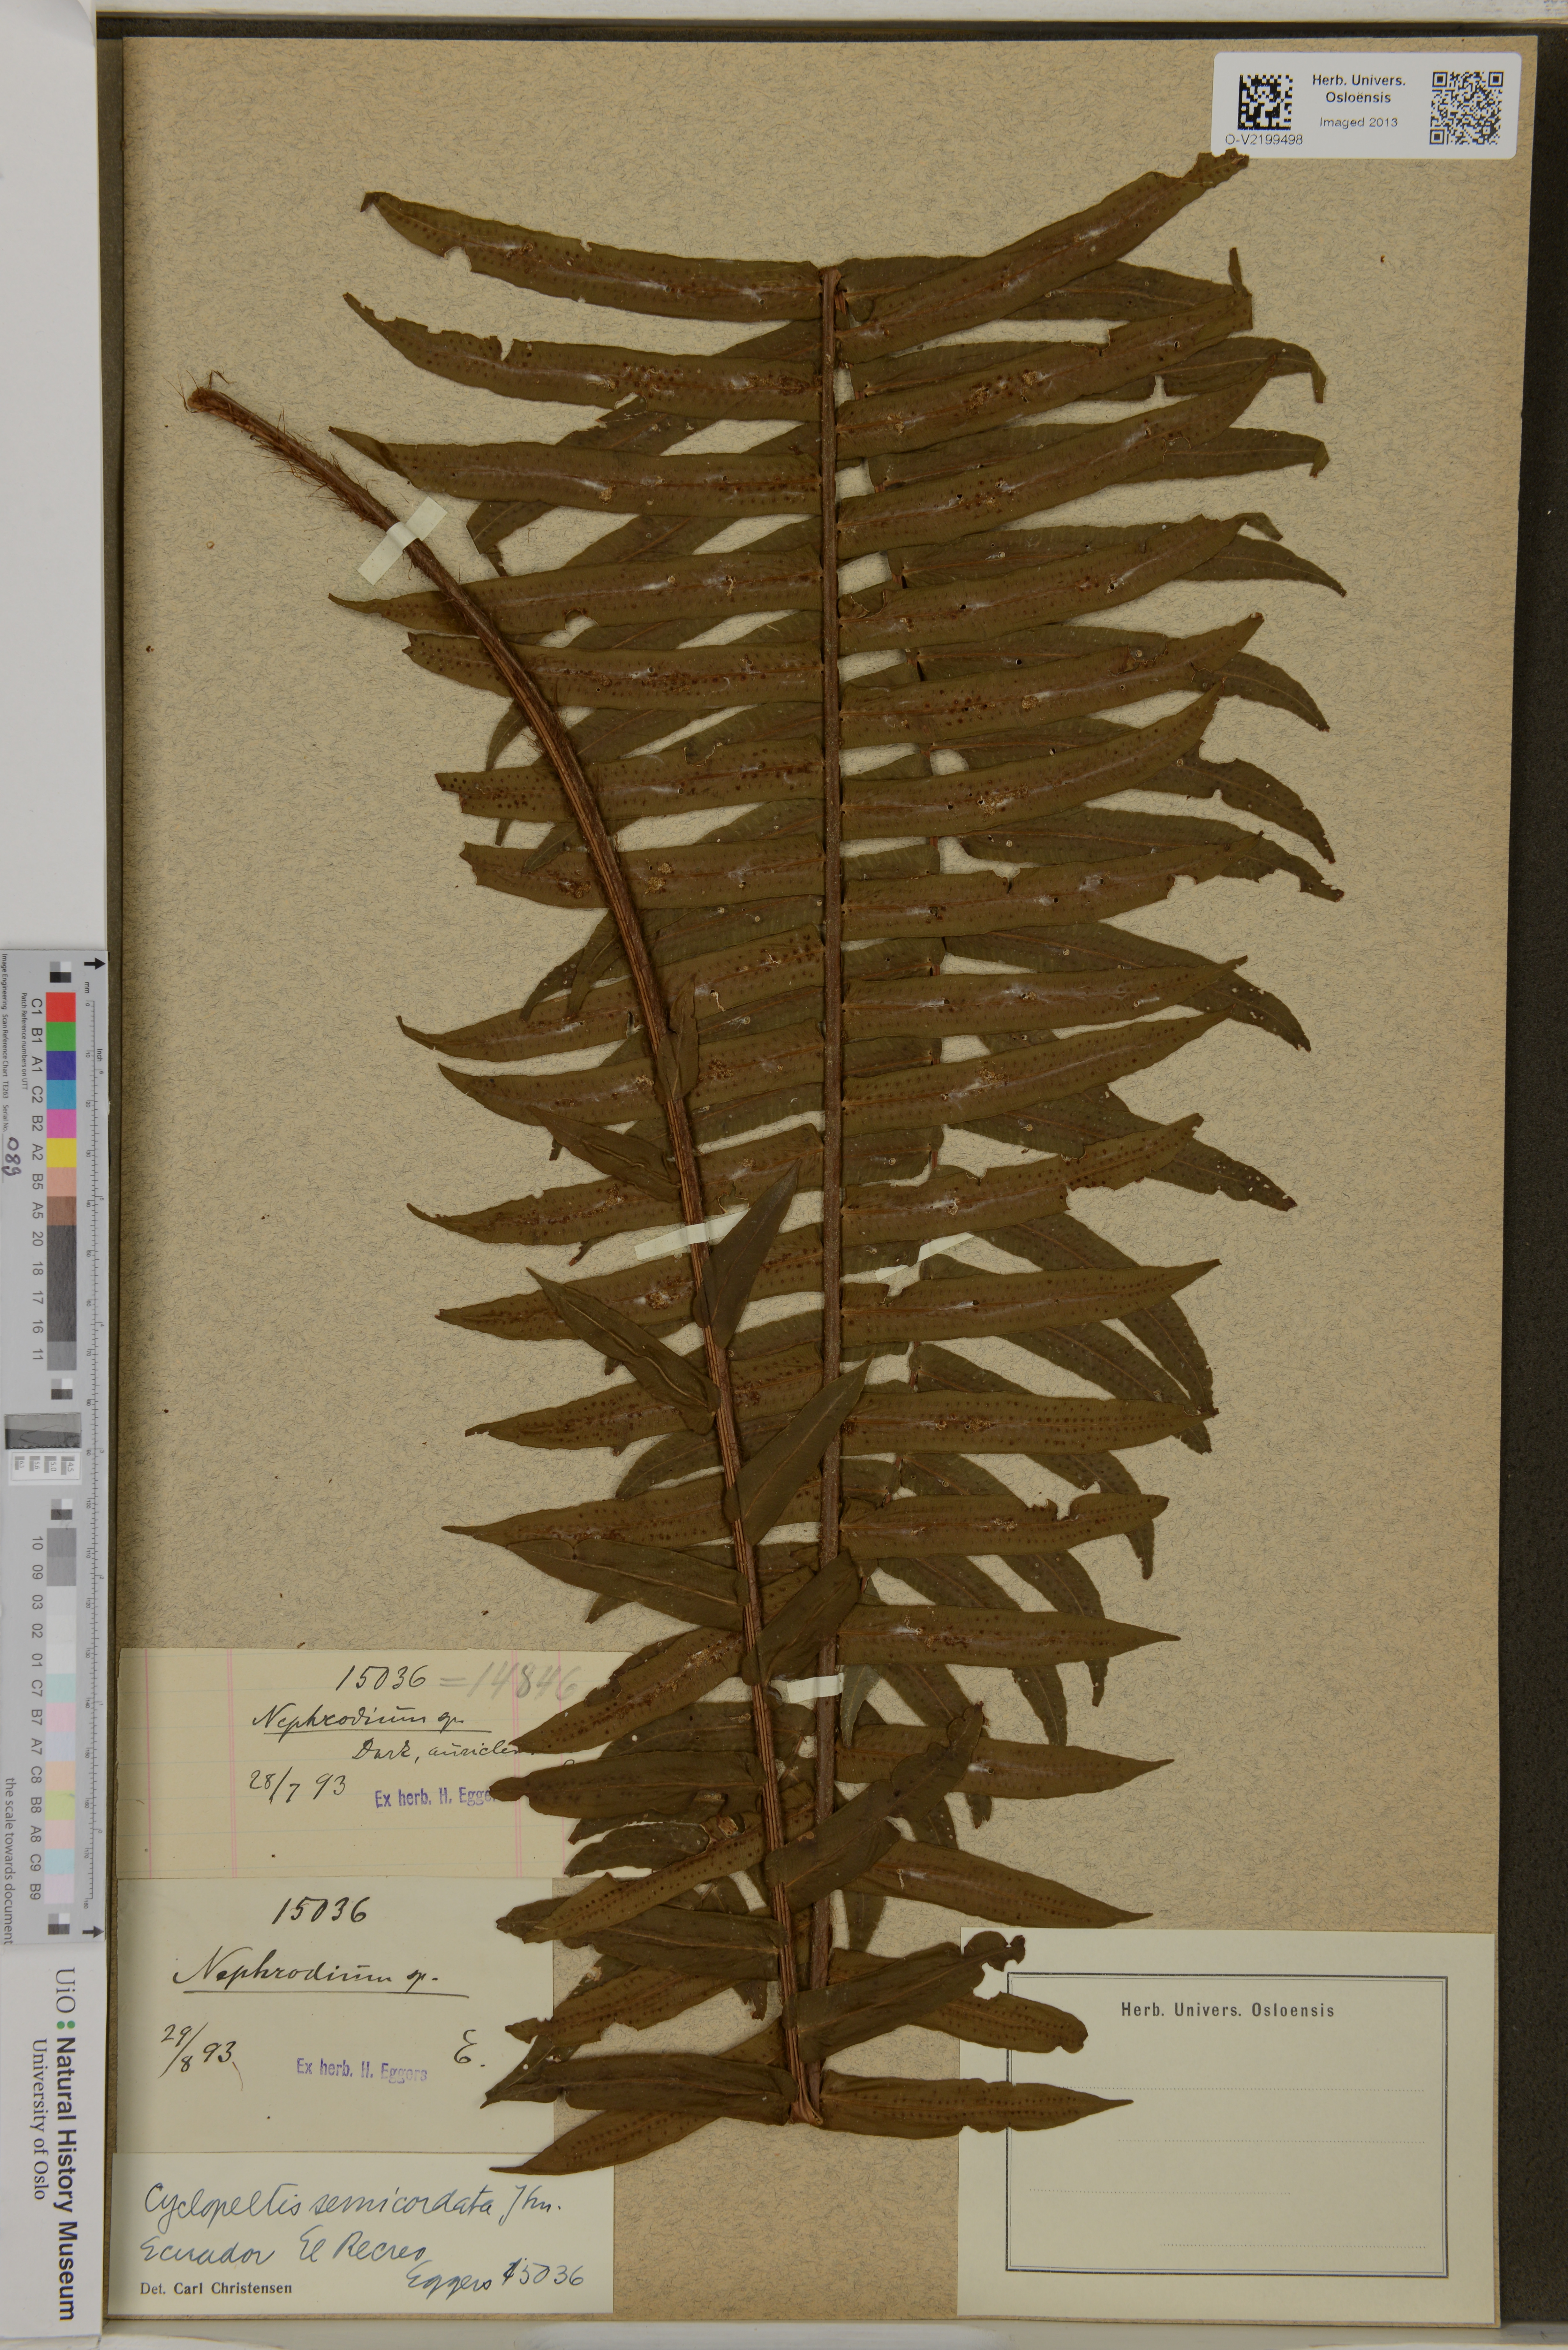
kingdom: Plantae
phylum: Tracheophyta
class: Polypodiopsida
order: Polypodiales
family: Lomariopsidaceae
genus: Cyclopeltis
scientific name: Cyclopeltis semicordata
